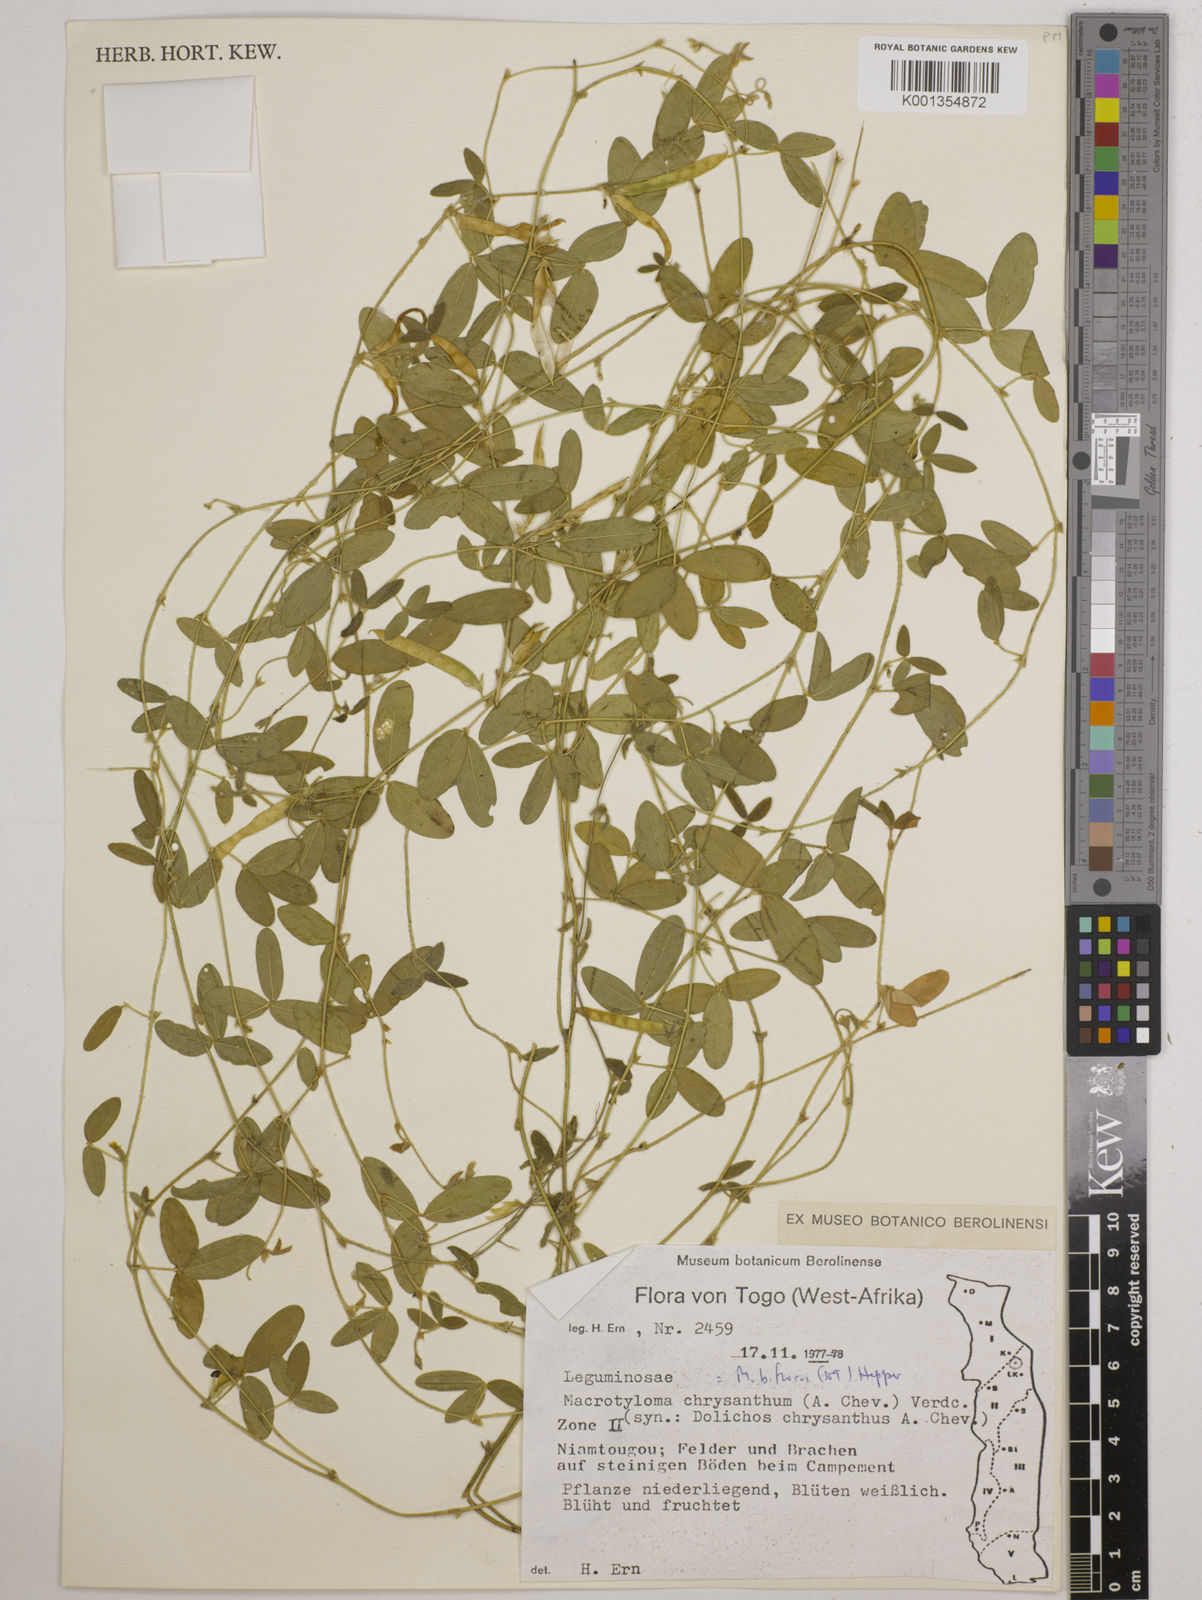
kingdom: Plantae
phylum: Tracheophyta
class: Magnoliopsida
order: Fabales
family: Fabaceae
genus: Macrotyloma
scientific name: Macrotyloma biflorum
